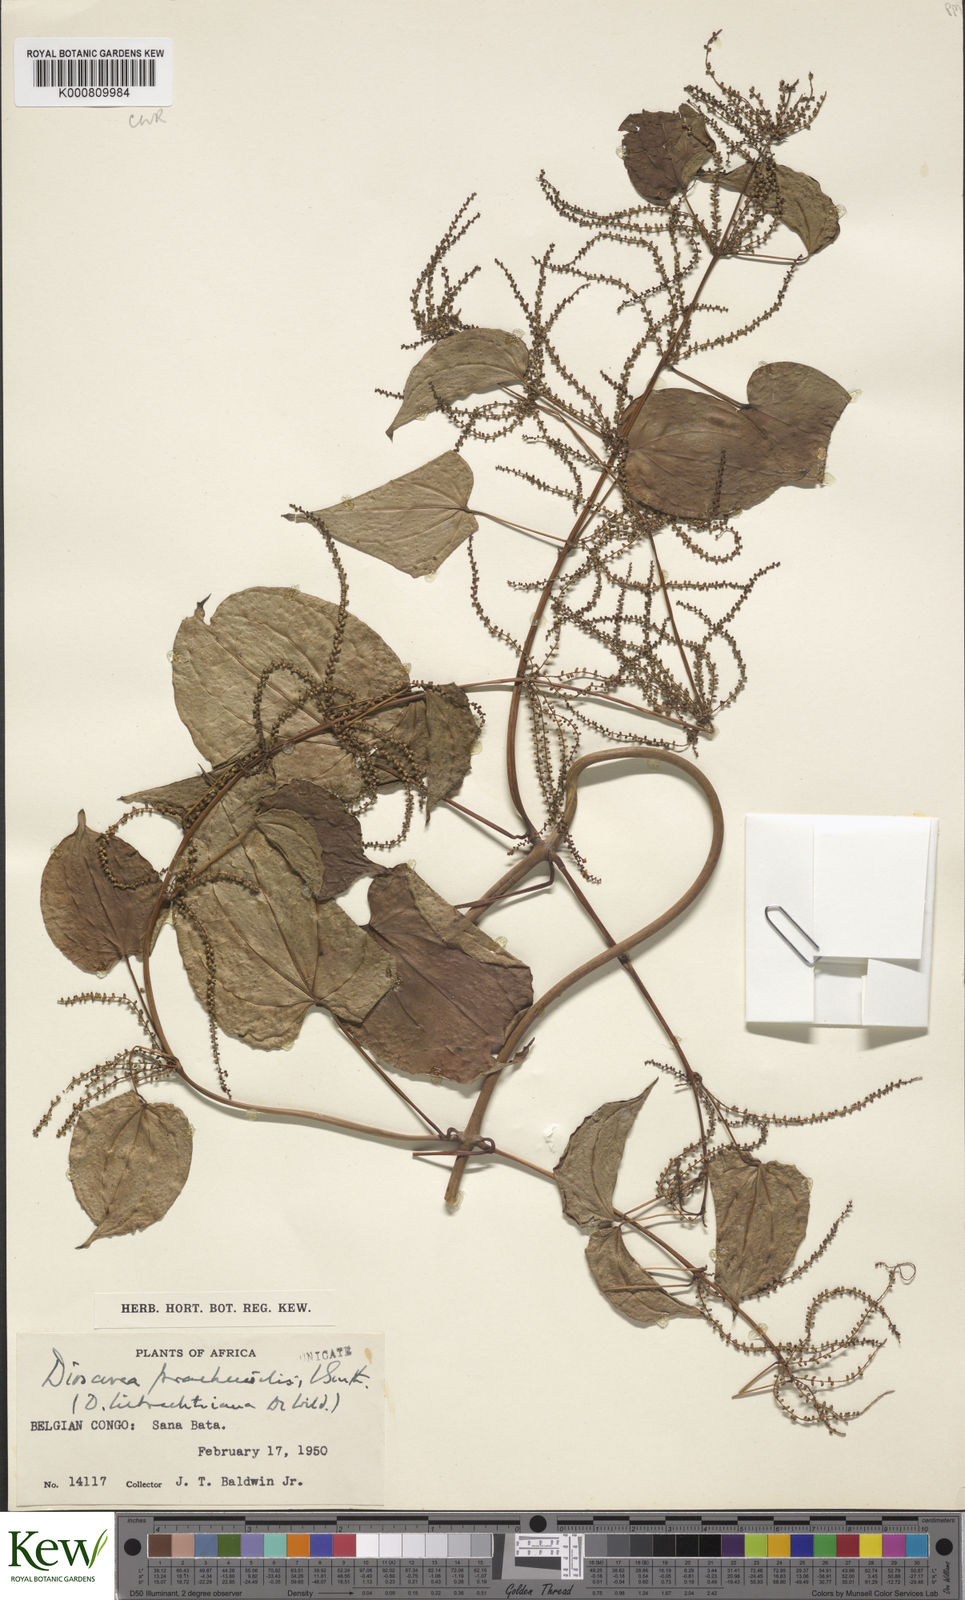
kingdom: Plantae
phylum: Tracheophyta
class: Liliopsida
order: Dioscoreales
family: Dioscoreaceae
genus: Dioscorea
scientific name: Dioscorea praehensilis
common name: Bush yam
